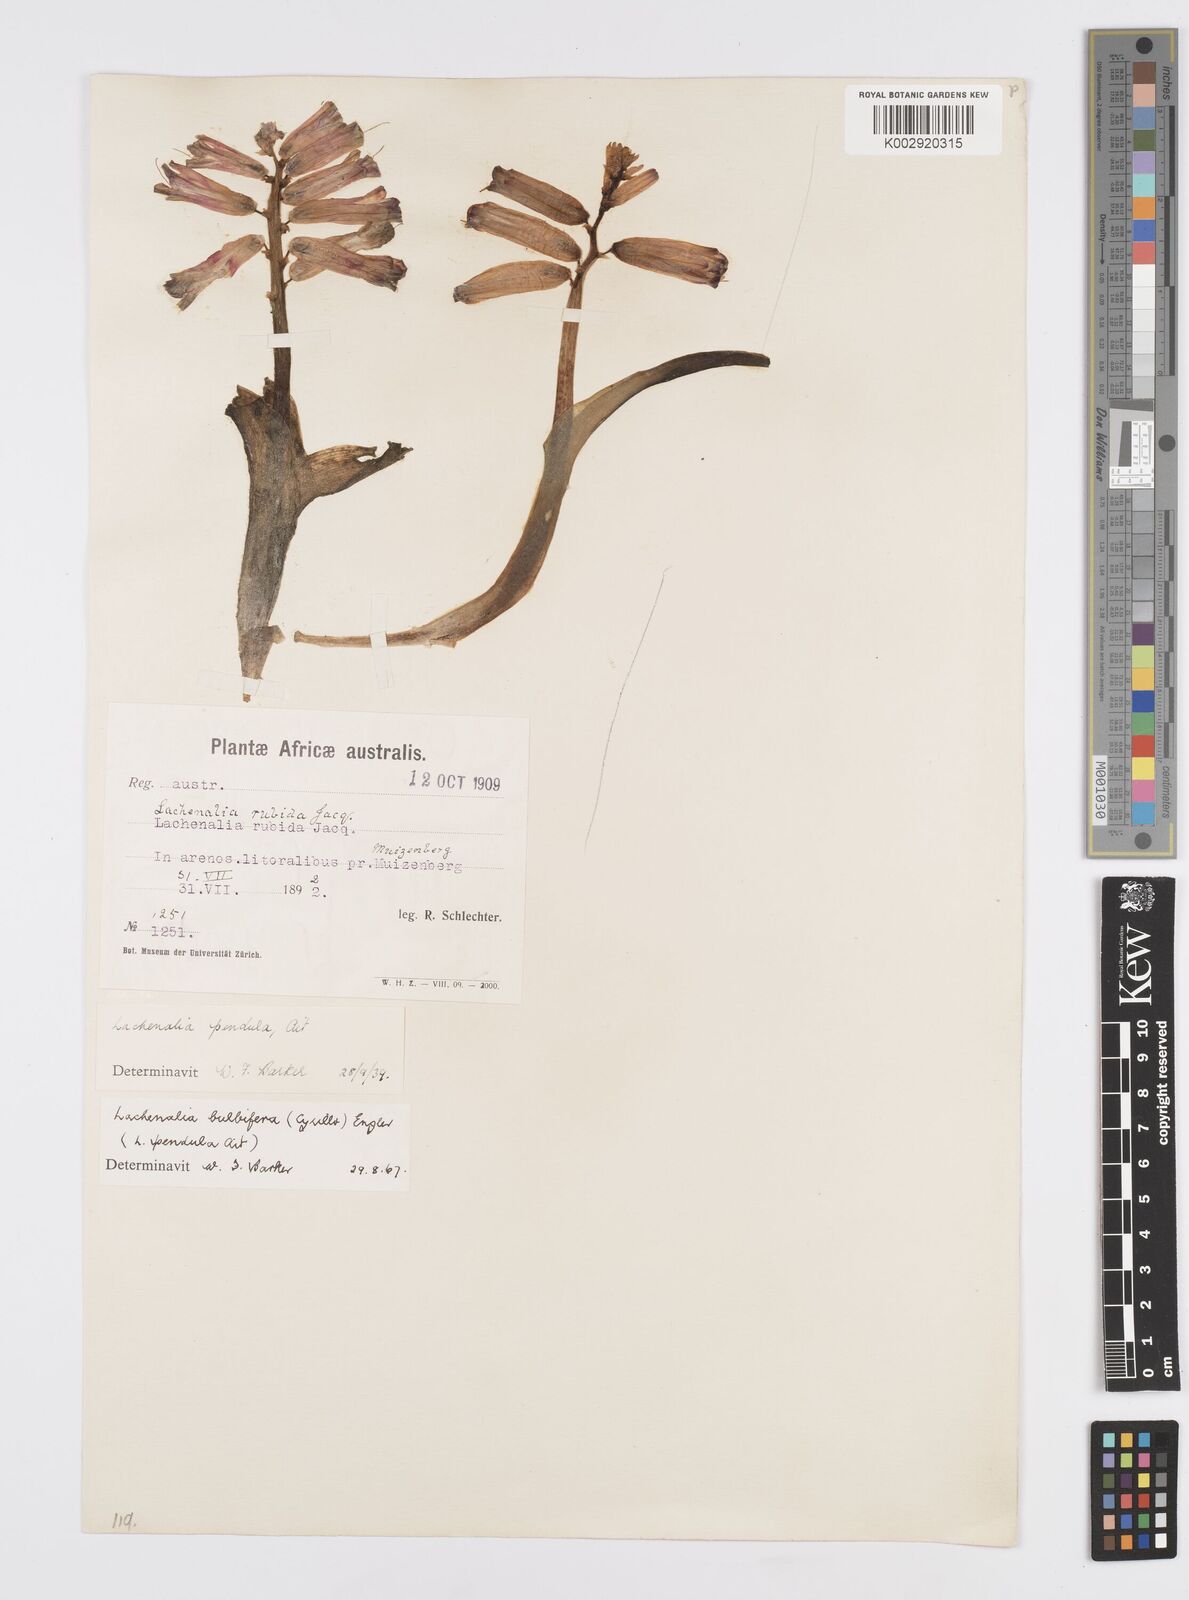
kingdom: Plantae
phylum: Tracheophyta
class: Liliopsida
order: Asparagales
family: Asparagaceae
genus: Lachenalia
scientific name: Lachenalia bulbifera
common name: Red lachenalia
